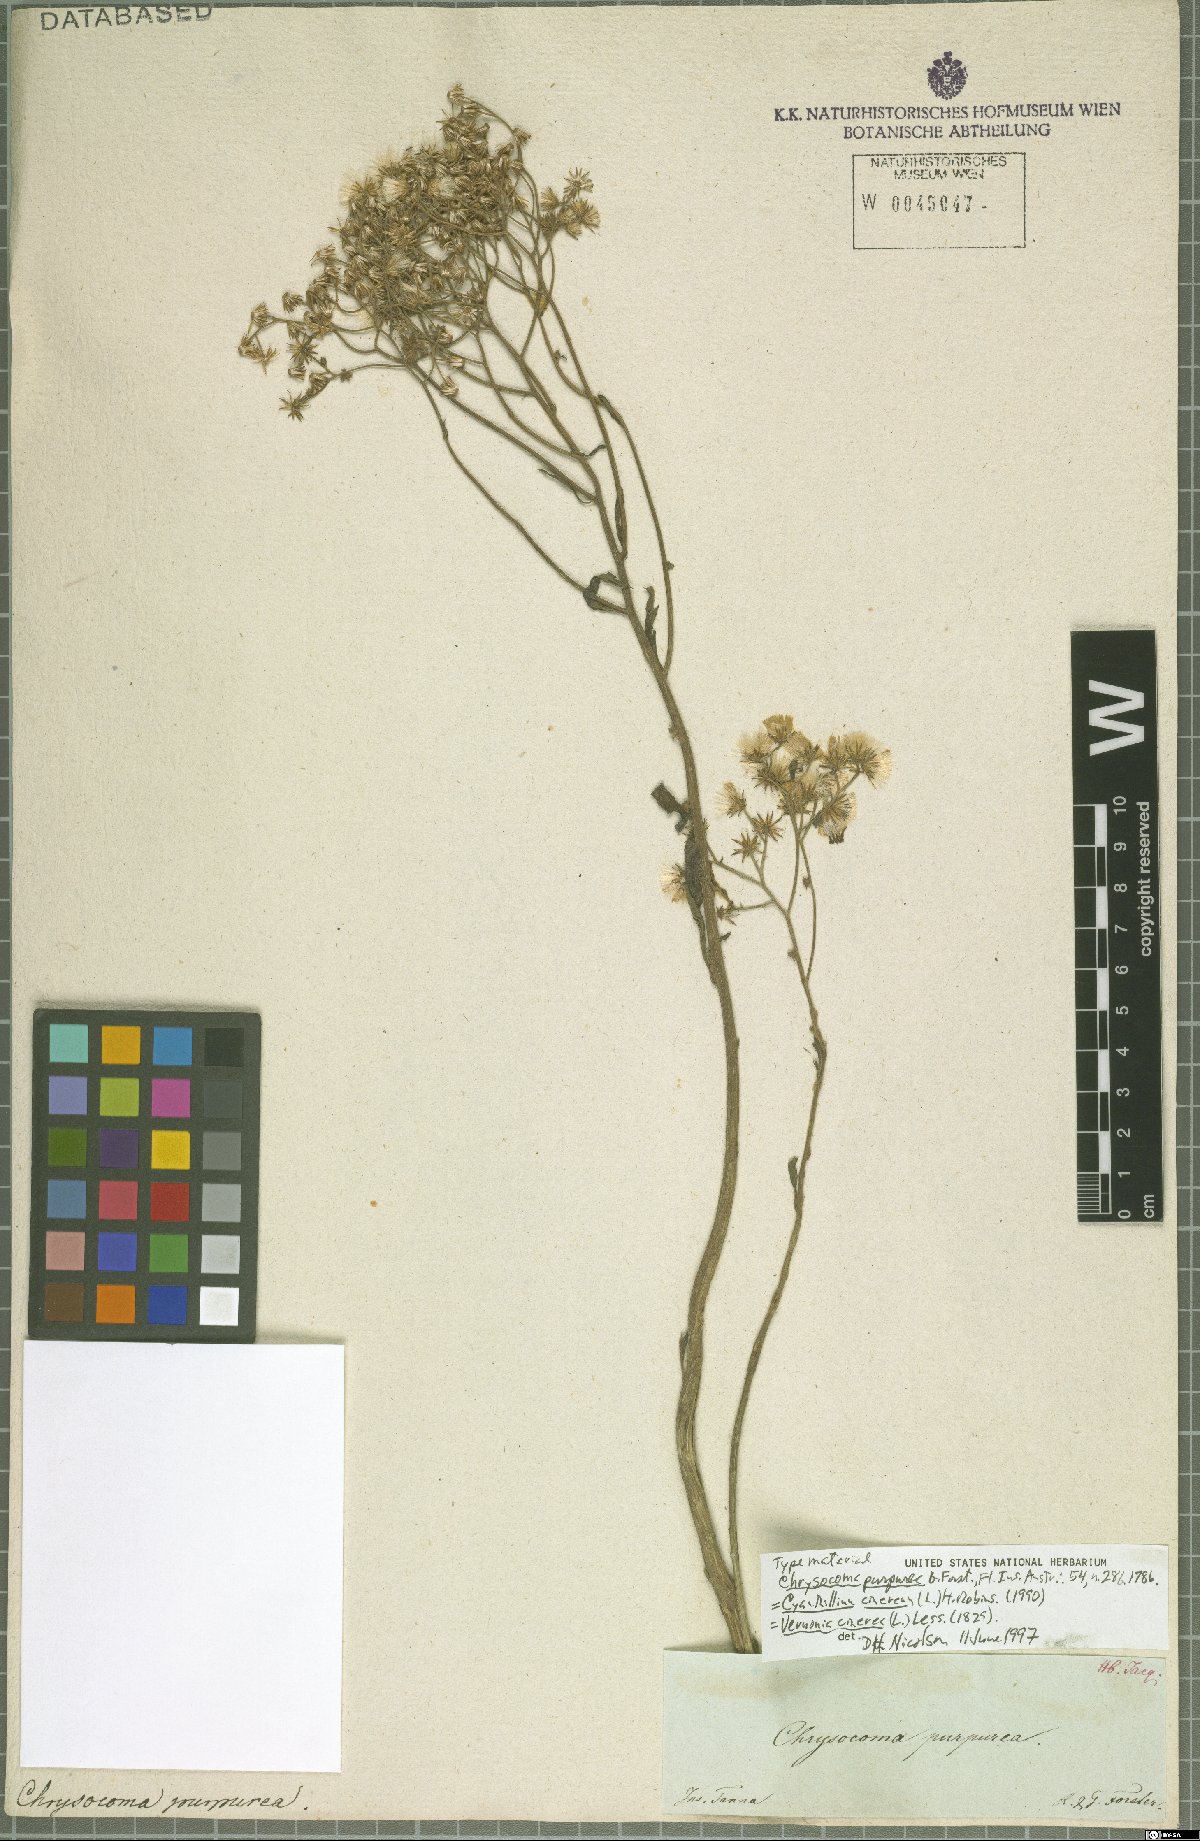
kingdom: Plantae
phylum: Tracheophyta
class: Magnoliopsida
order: Asterales
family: Asteraceae
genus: Cyanthillium
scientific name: Cyanthillium cinereum
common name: Little ironweed
